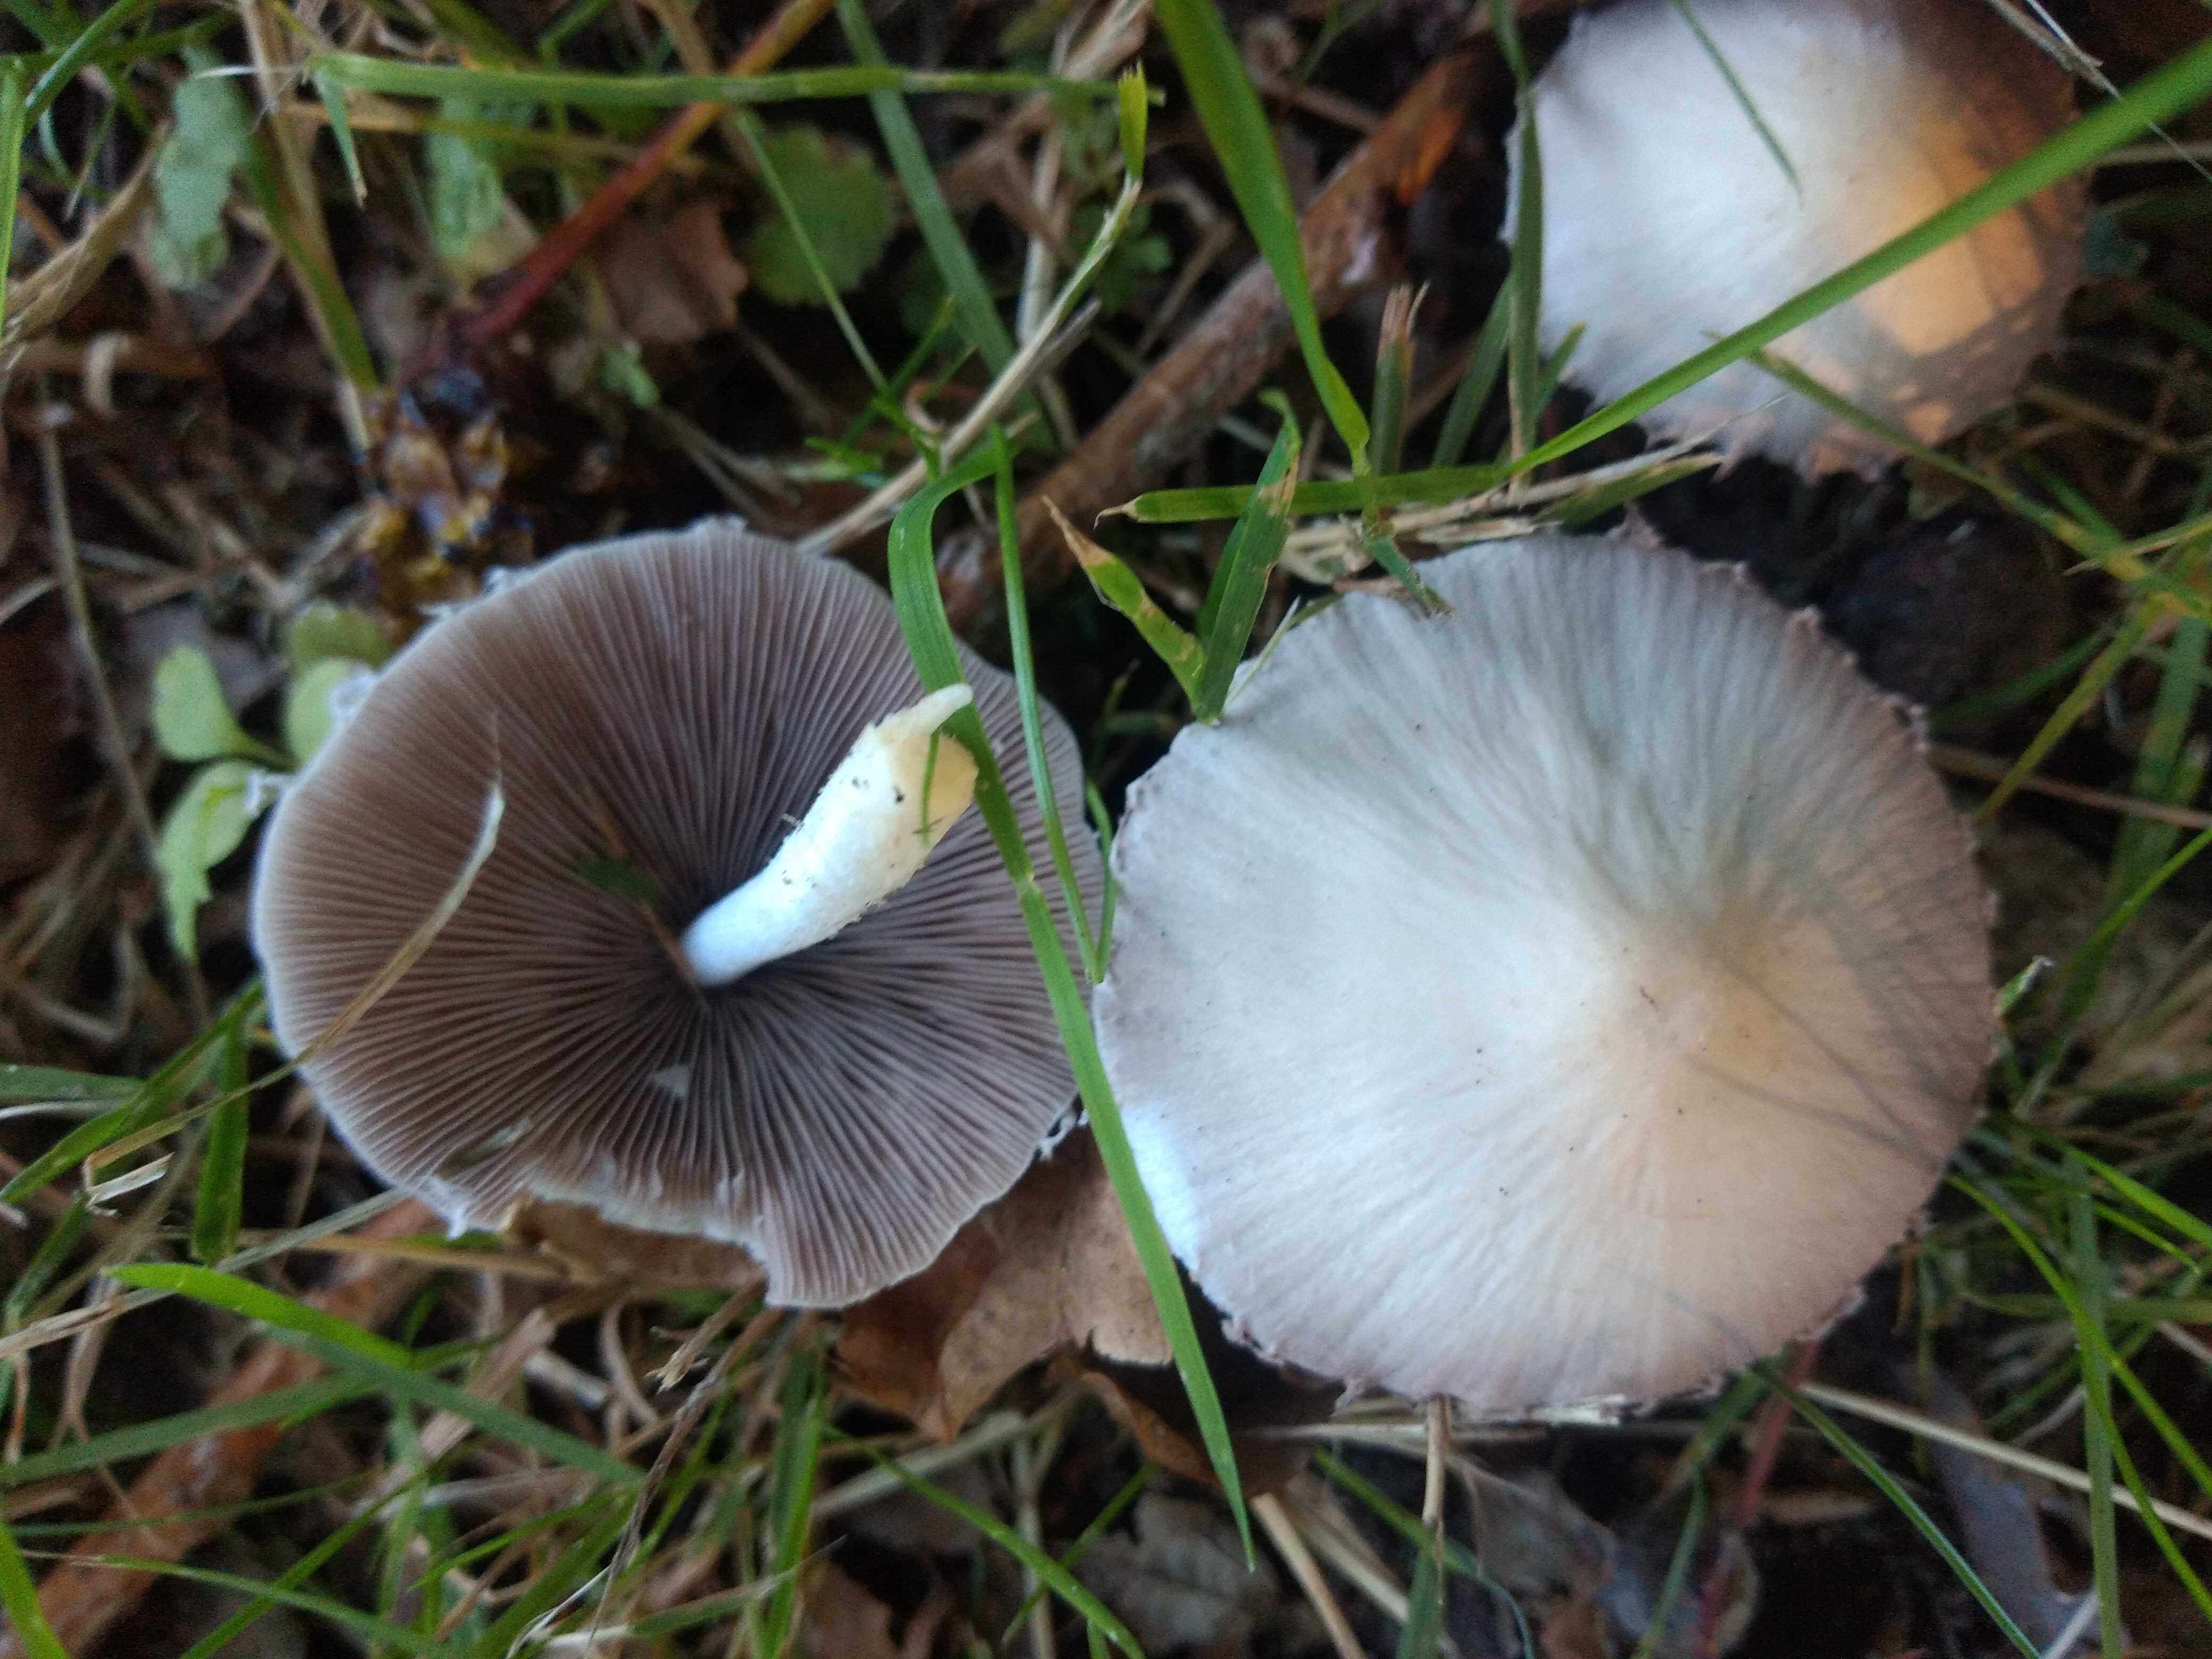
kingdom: Fungi
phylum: Basidiomycota
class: Agaricomycetes
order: Agaricales
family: Psathyrellaceae
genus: Candolleomyces
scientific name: Candolleomyces candolleanus
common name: Candolles mørkhat
